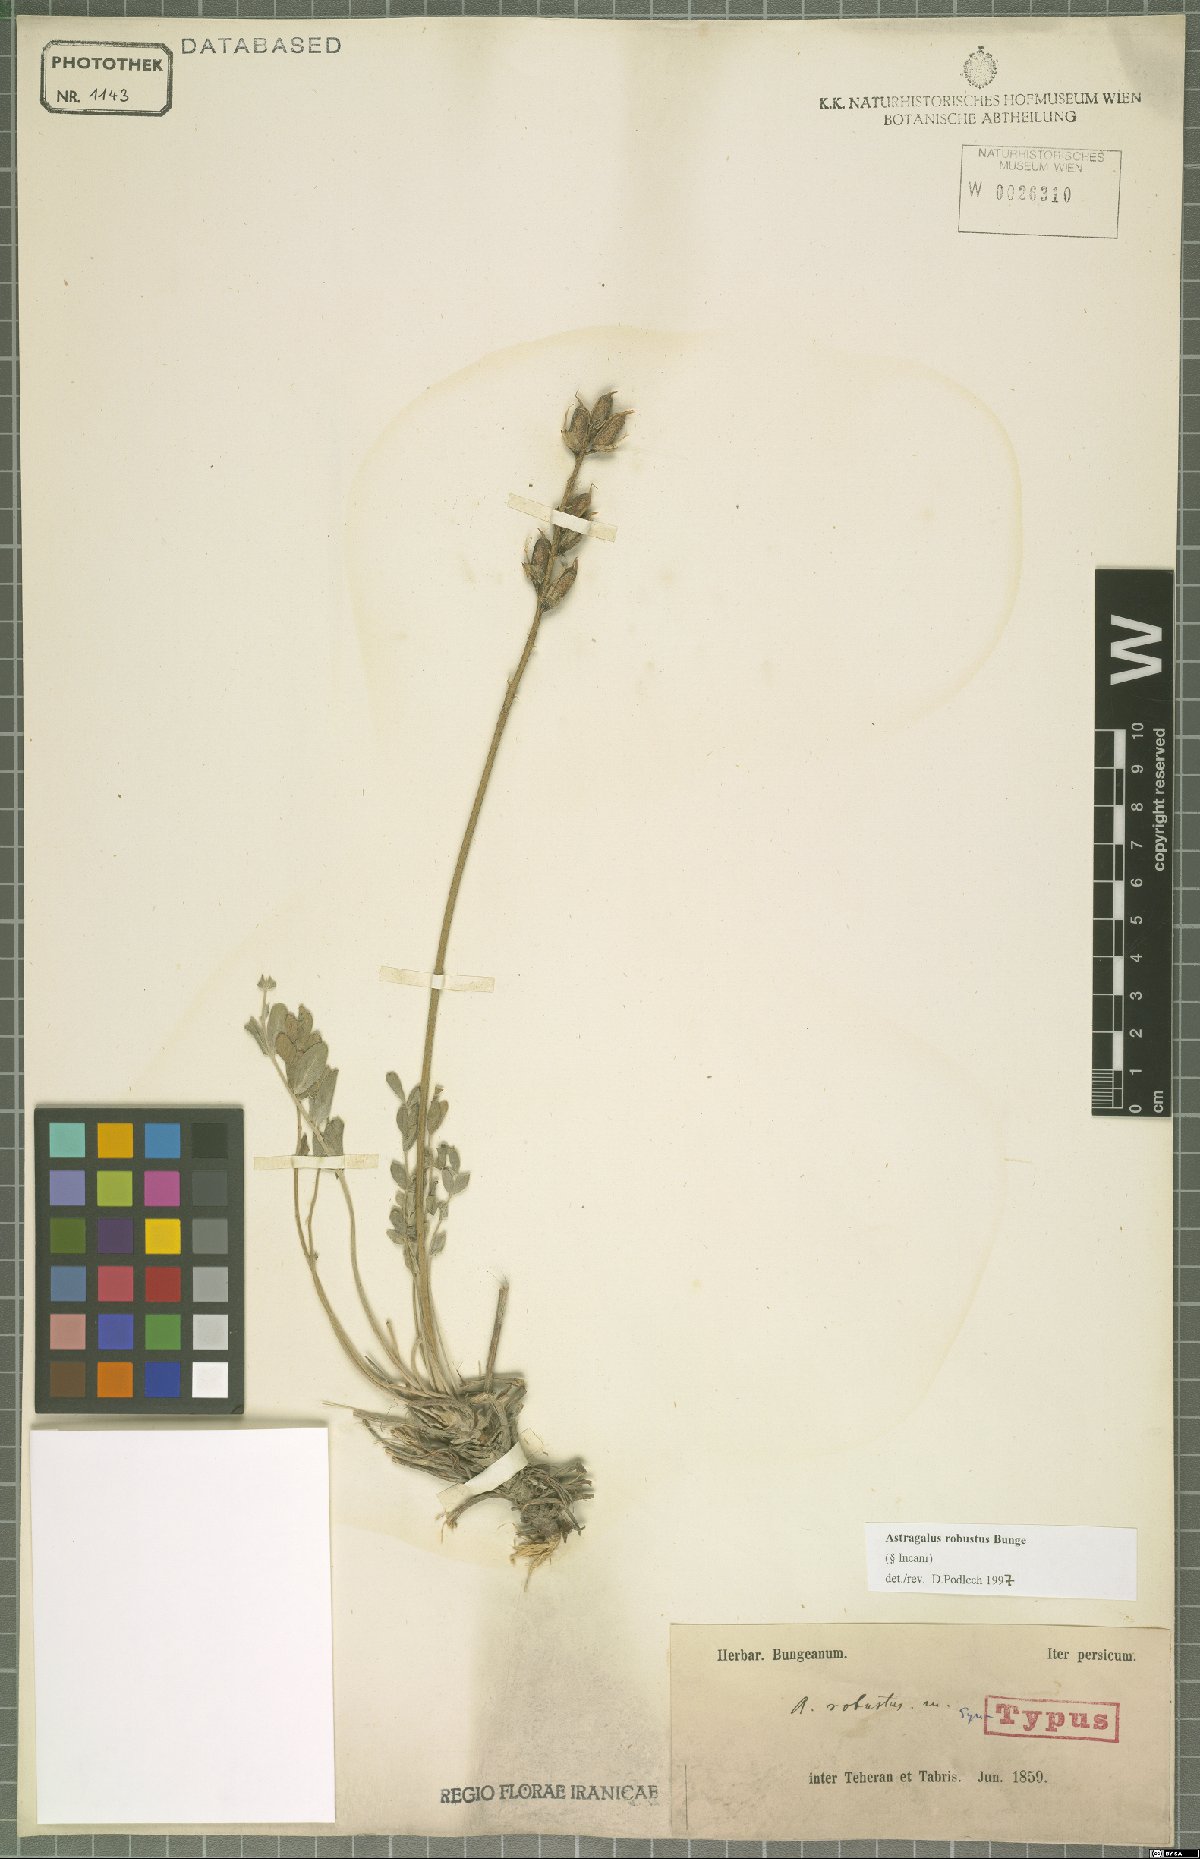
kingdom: Plantae
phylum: Tracheophyta
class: Magnoliopsida
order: Fabales
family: Fabaceae
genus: Astragalus
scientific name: Astragalus robustus
